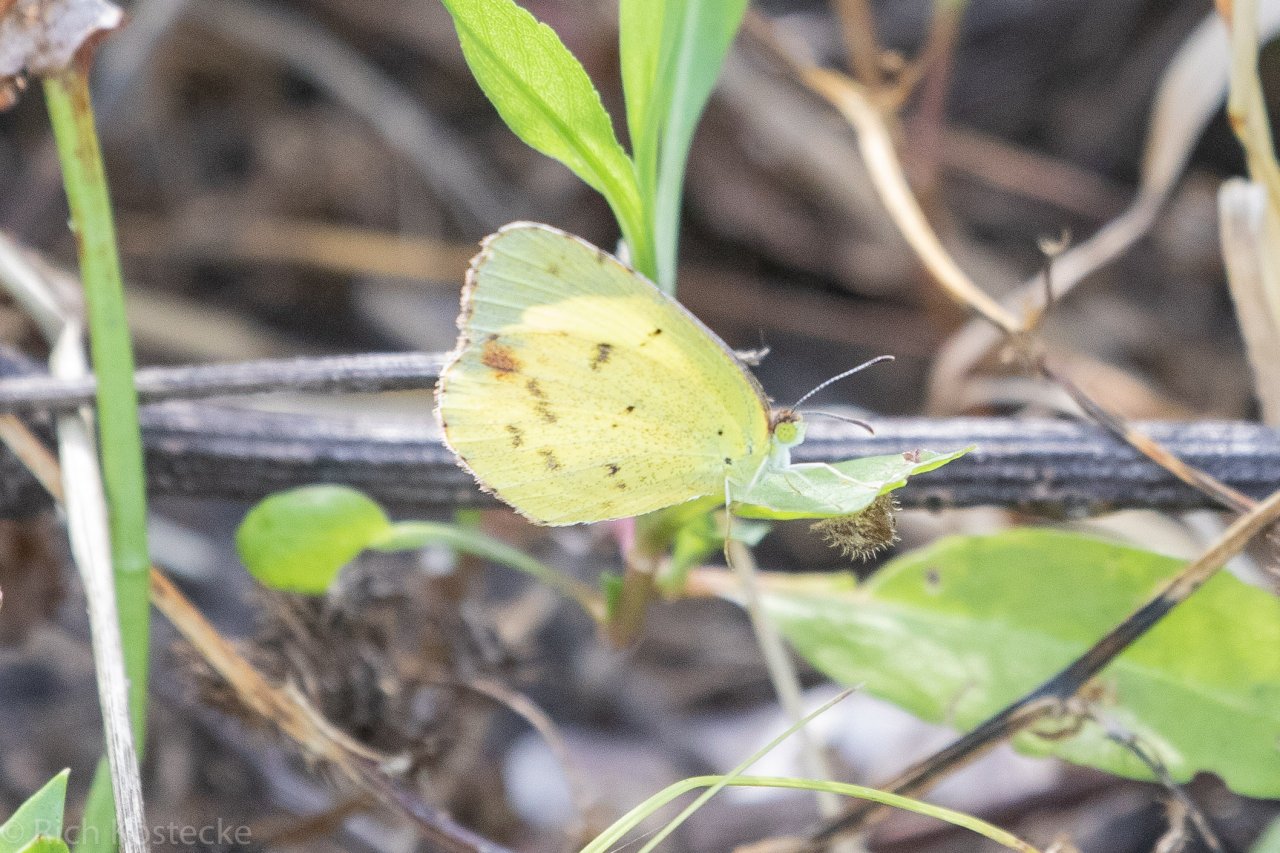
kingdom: Animalia
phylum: Arthropoda
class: Insecta
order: Lepidoptera
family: Pieridae
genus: Pyrisitia
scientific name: Pyrisitia lisa
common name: Little Yellow
